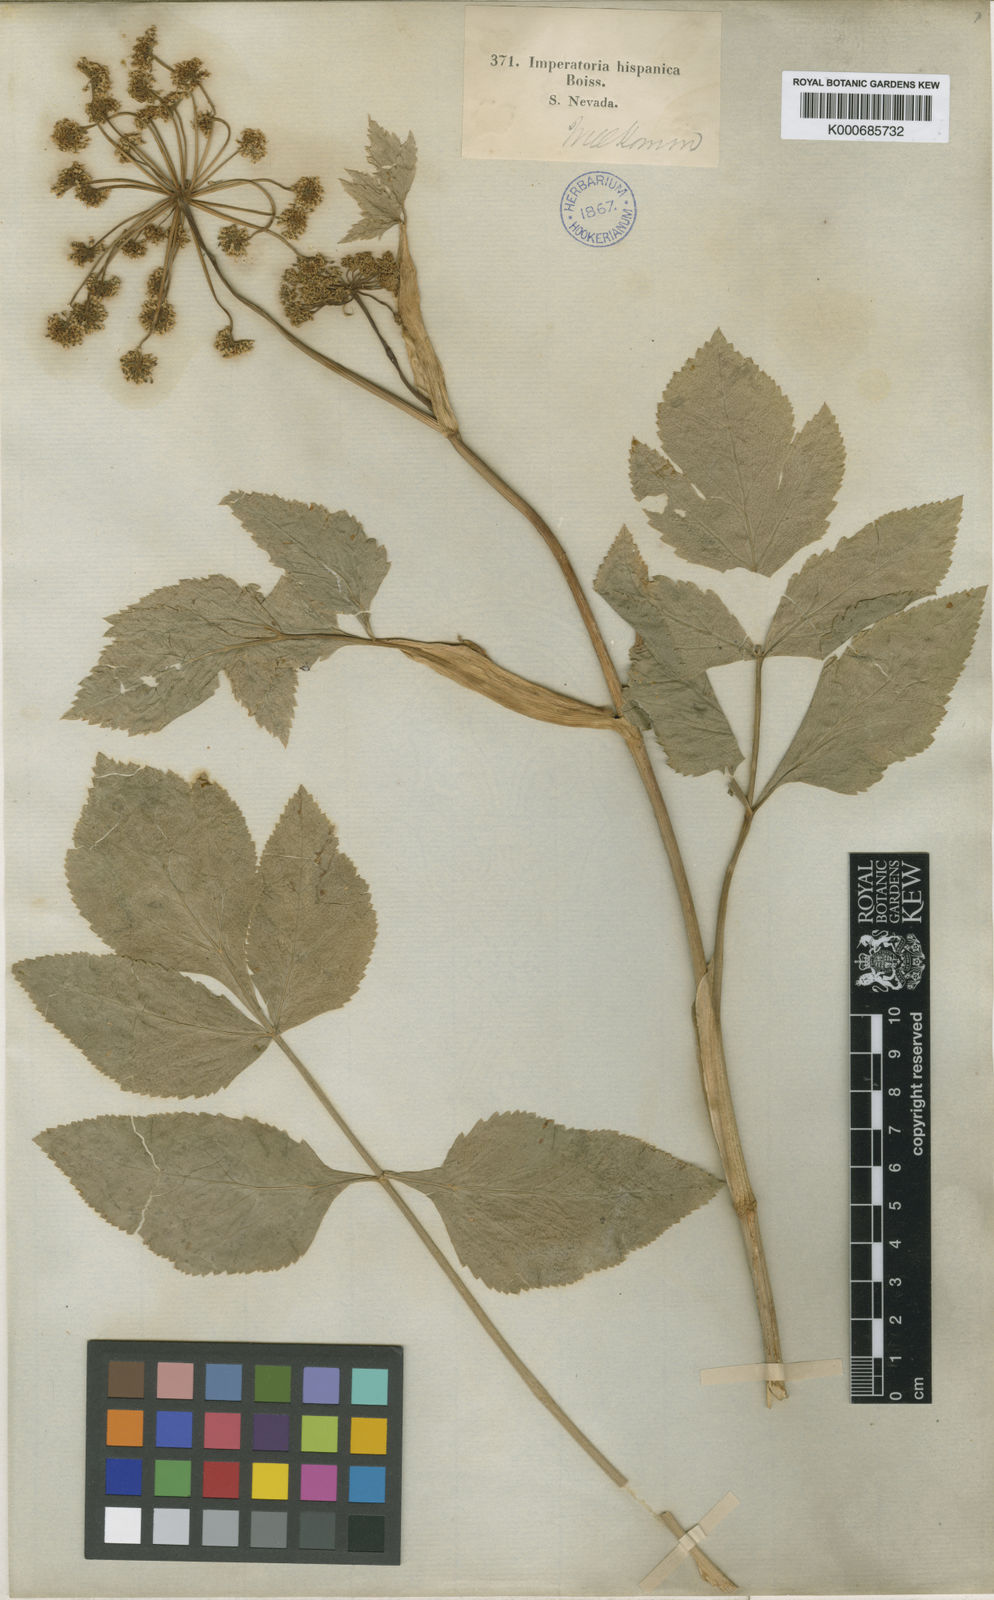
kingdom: Plantae
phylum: Tracheophyta
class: Magnoliopsida
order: Apiales
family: Apiaceae
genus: Peucedanum
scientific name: Peucedanum
